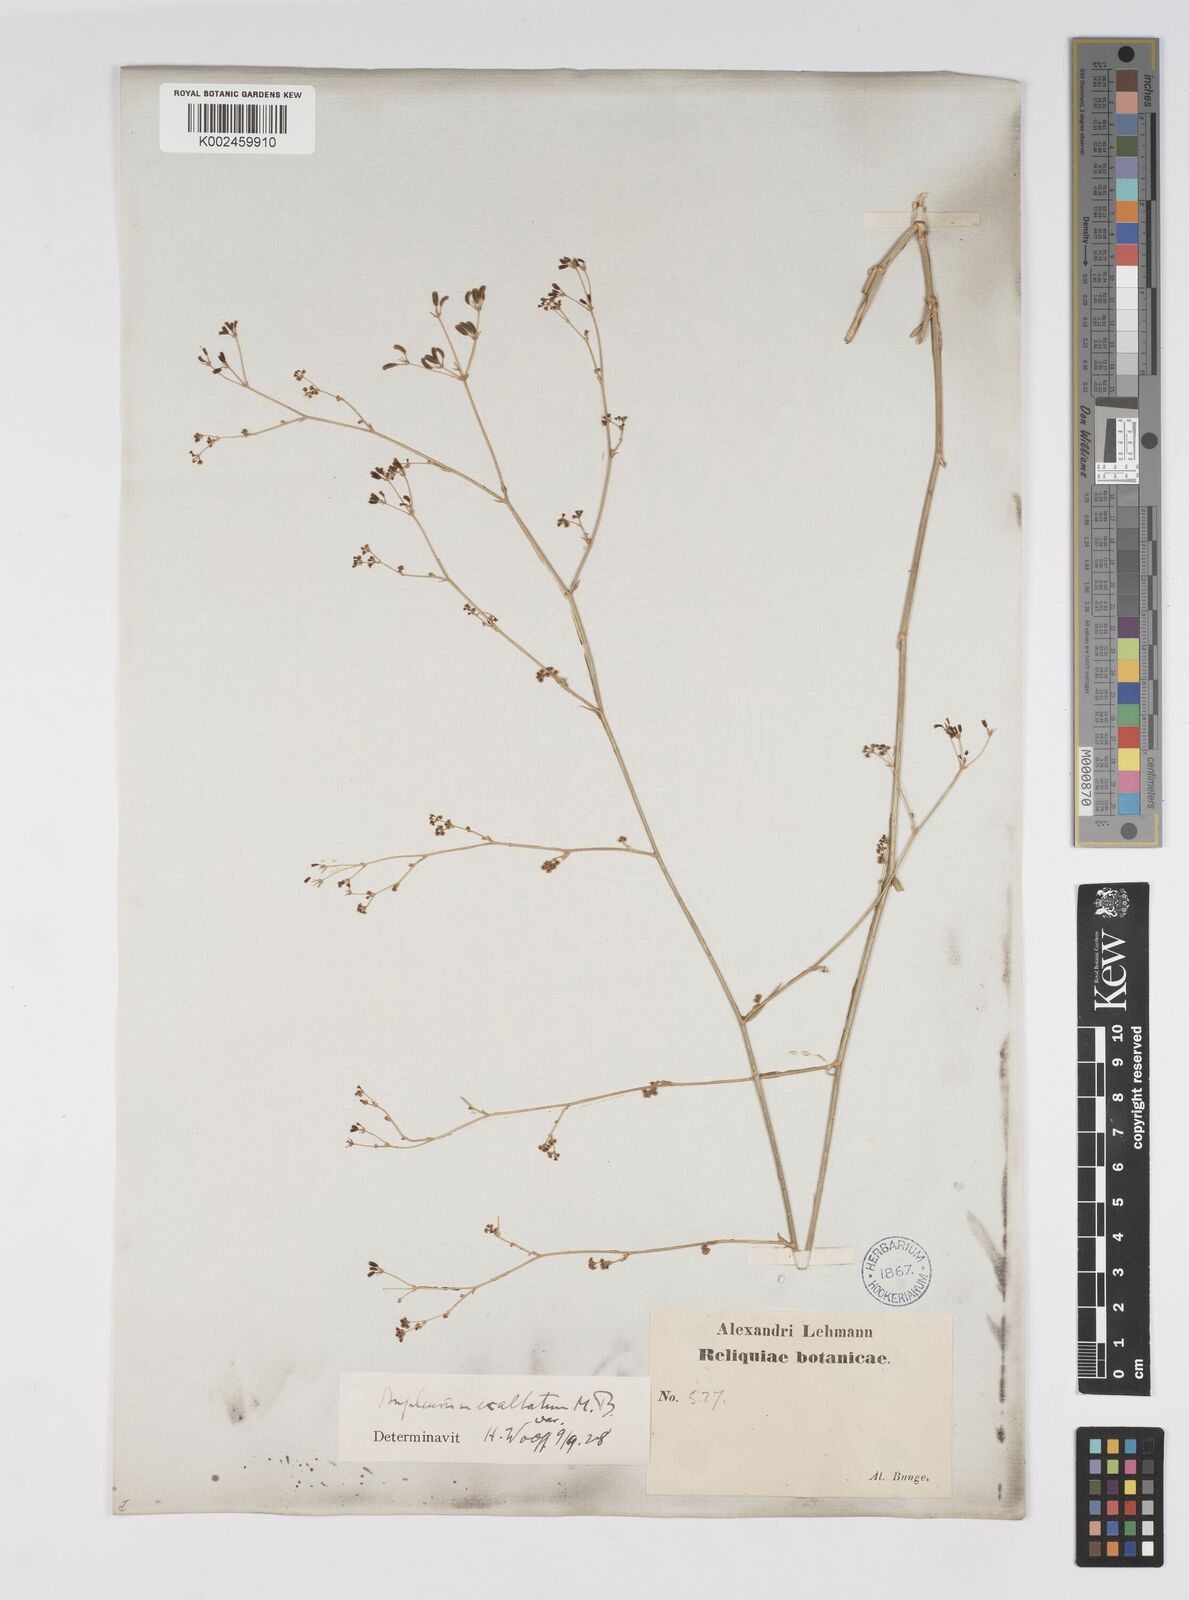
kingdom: Plantae
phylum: Tracheophyta
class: Magnoliopsida
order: Apiales
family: Apiaceae
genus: Bupleurum
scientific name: Bupleurum falcatum
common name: Sickle-leaved hare's-ear
